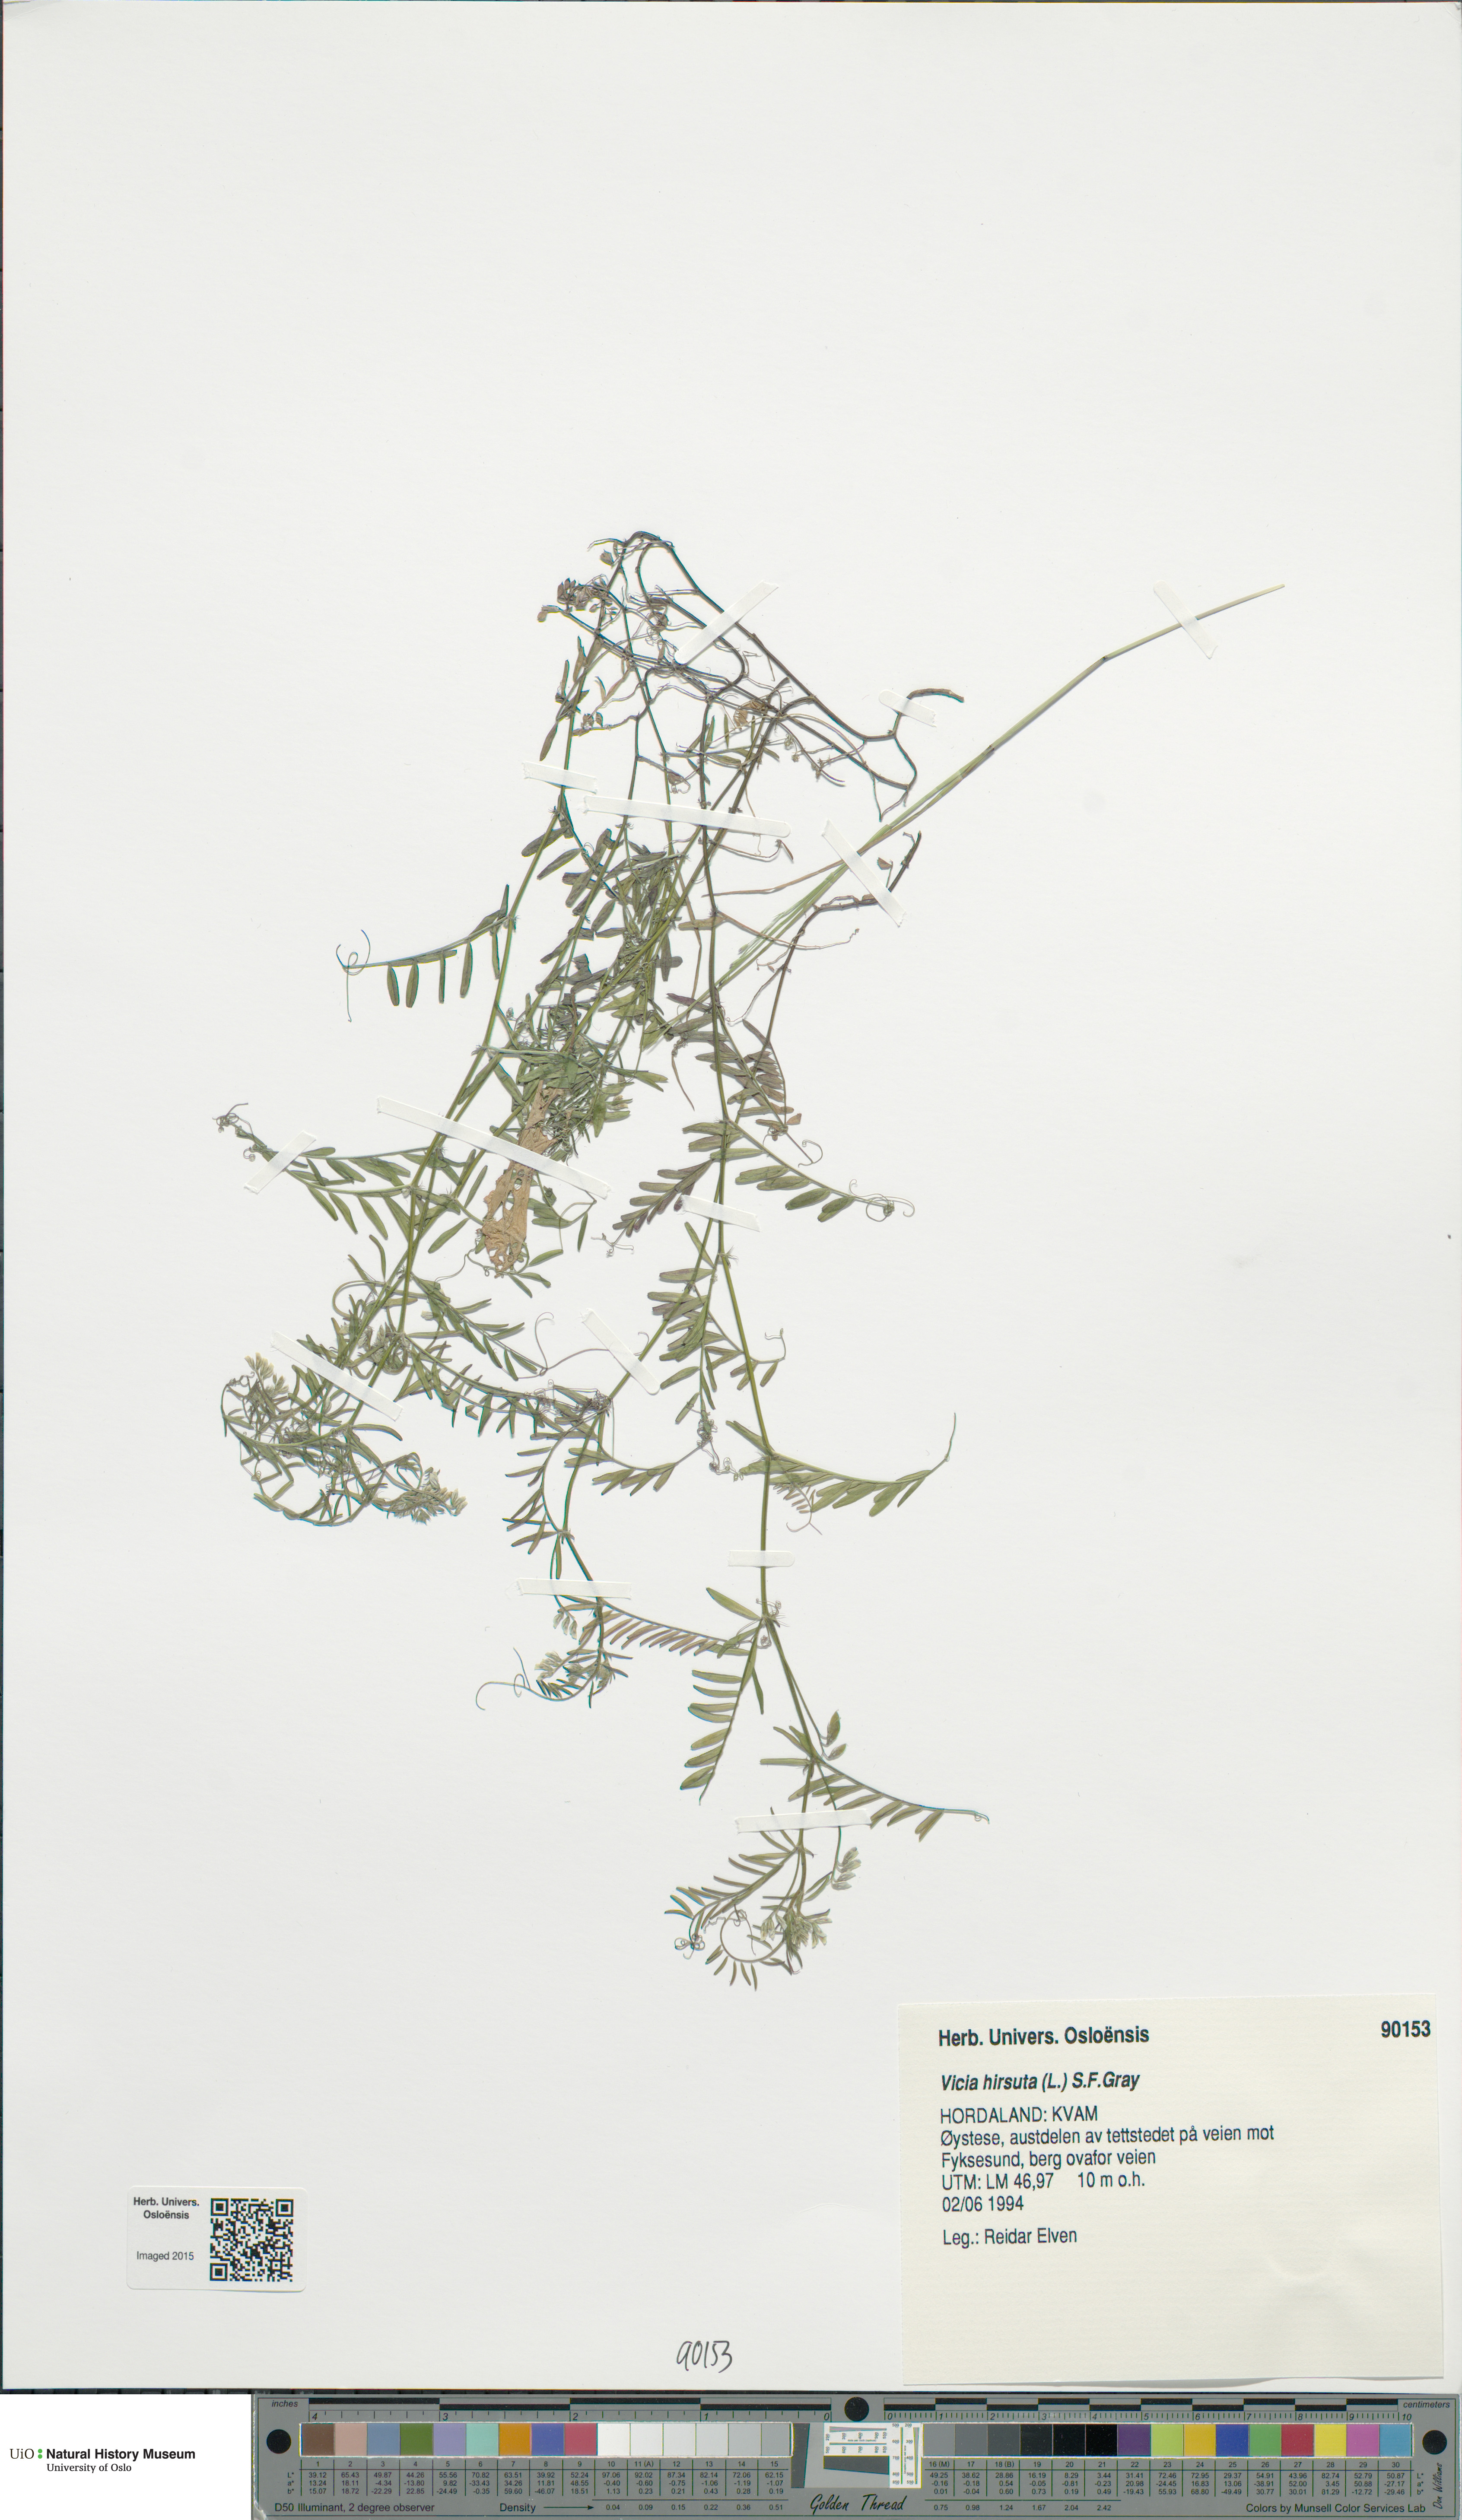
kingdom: Plantae
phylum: Tracheophyta
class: Magnoliopsida
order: Fabales
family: Fabaceae
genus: Vicia
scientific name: Vicia hirsuta
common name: Tiny vetch
